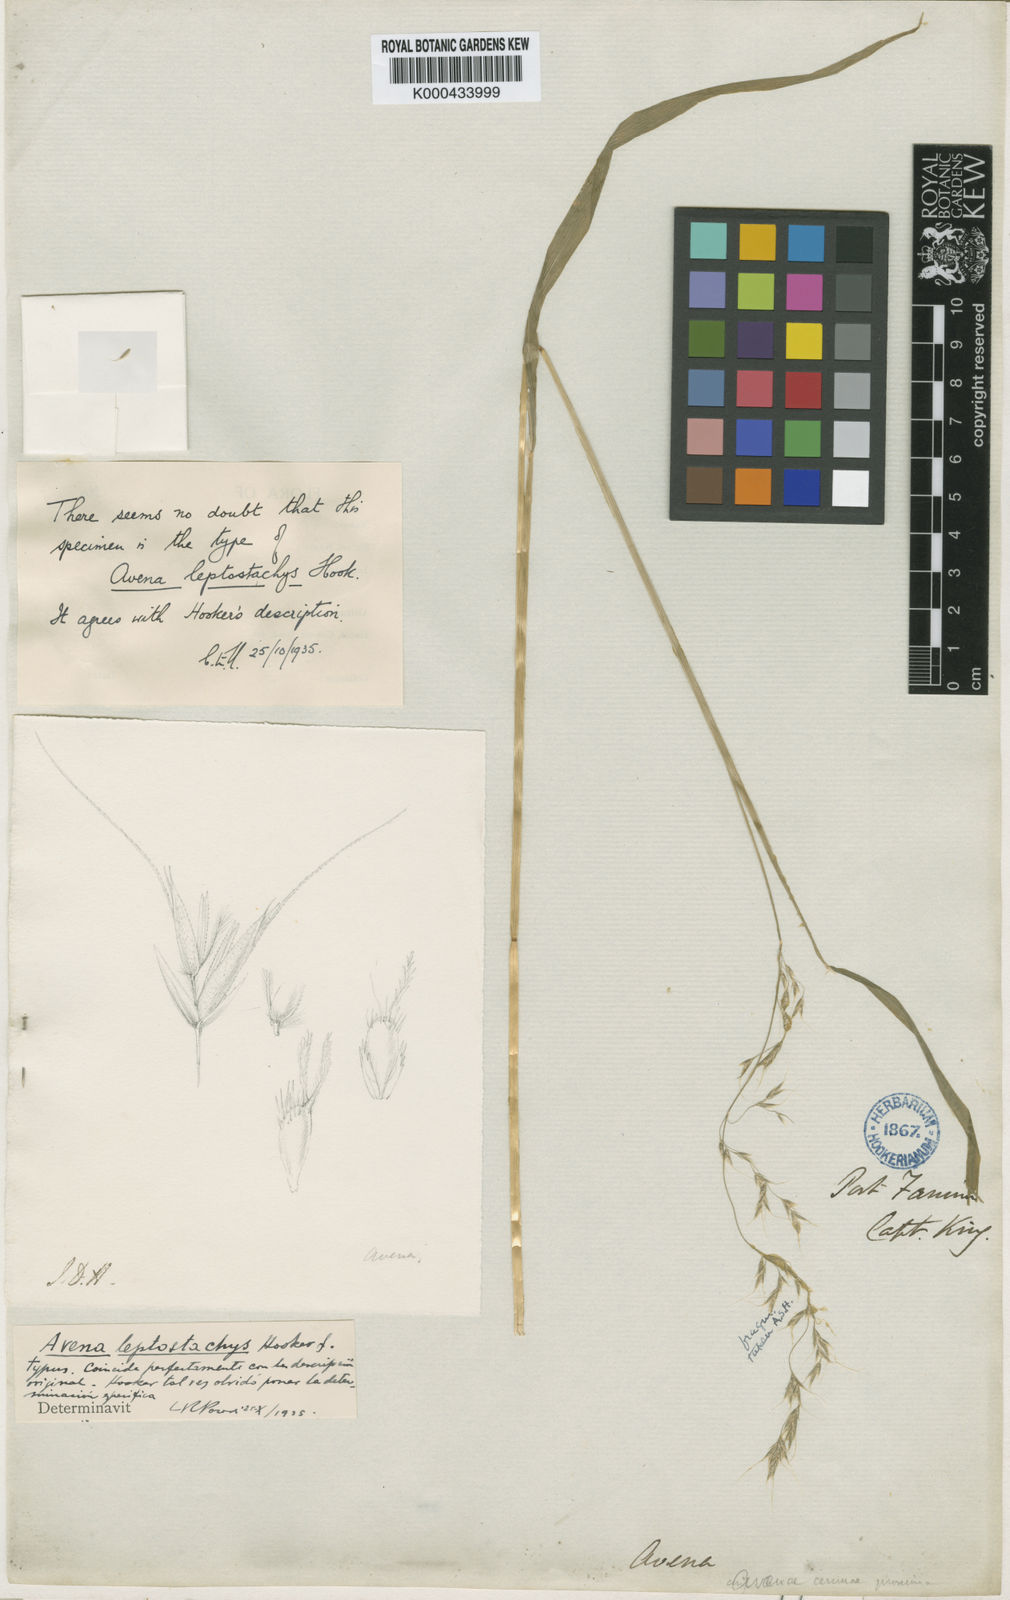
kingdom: Plantae
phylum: Tracheophyta
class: Liliopsida
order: Poales
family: Poaceae
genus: Graphephorum
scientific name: Graphephorum cernuum
